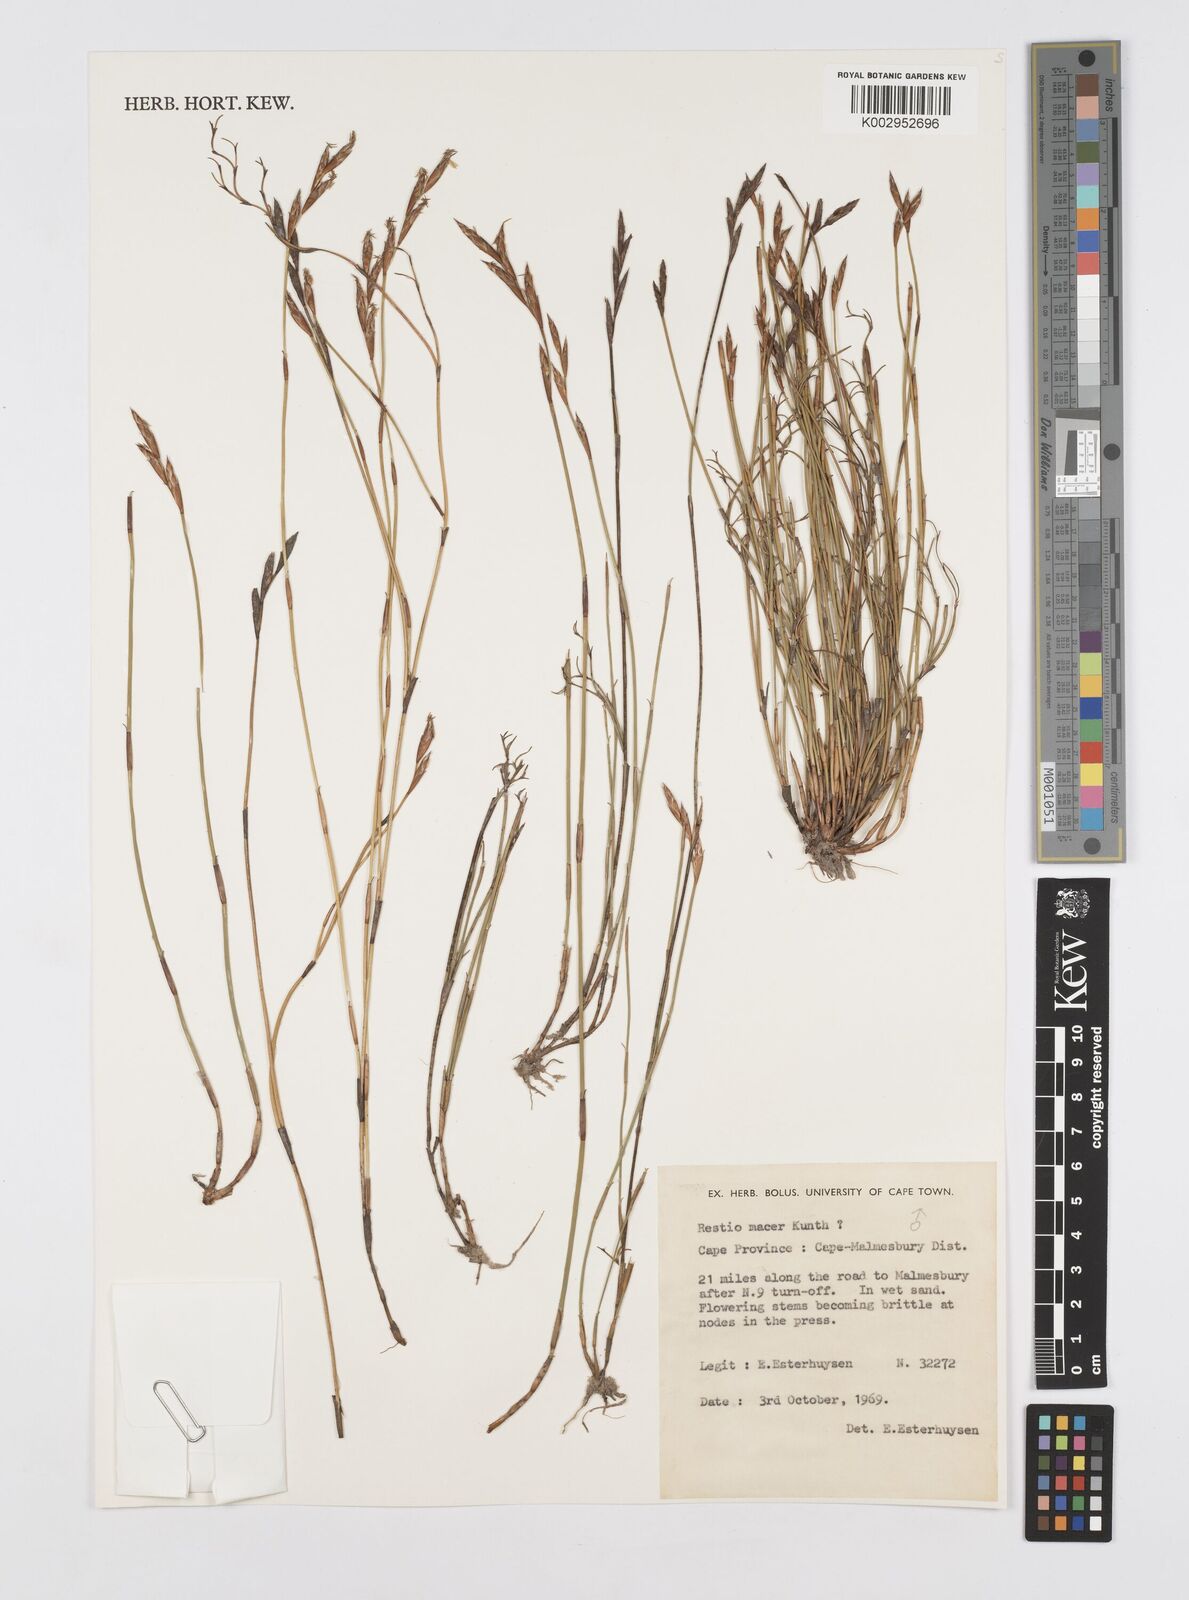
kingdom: Plantae
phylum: Tracheophyta
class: Liliopsida
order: Poales
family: Restionaceae
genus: Restio
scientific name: Restio macer
